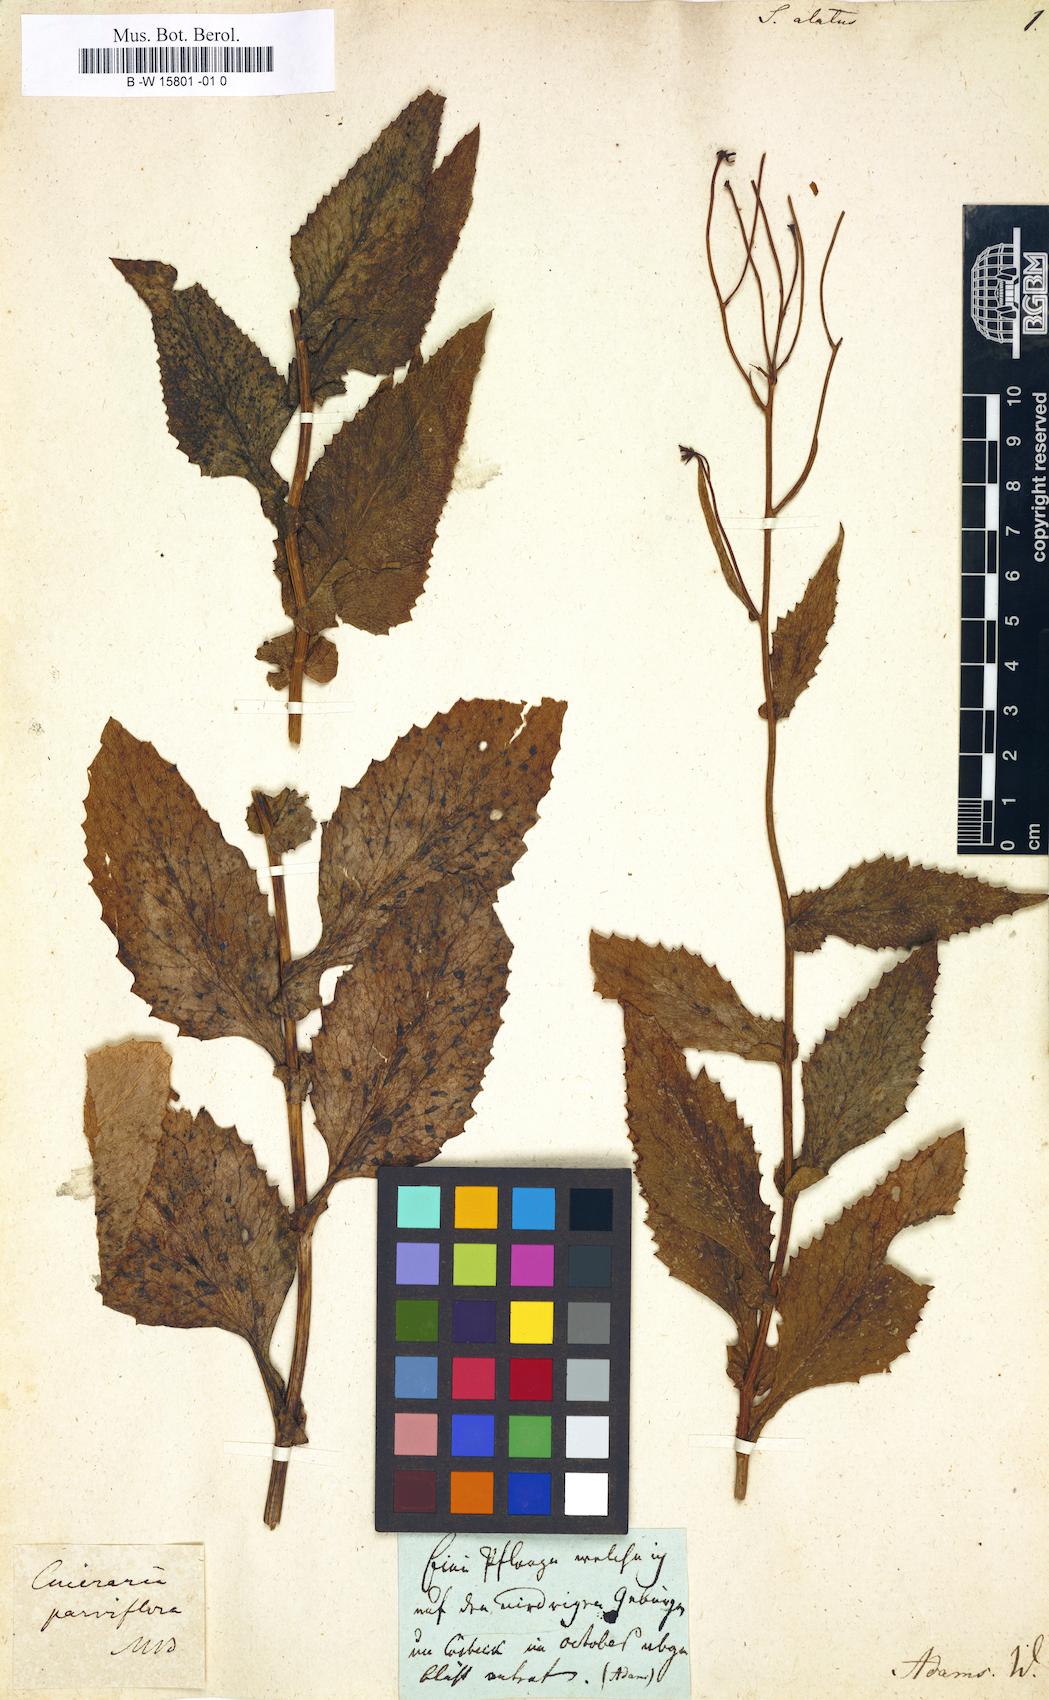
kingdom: Plantae
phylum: Tracheophyta
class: Magnoliopsida
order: Asterales
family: Asteraceae
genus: Senecio
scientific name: Senecio alatus
